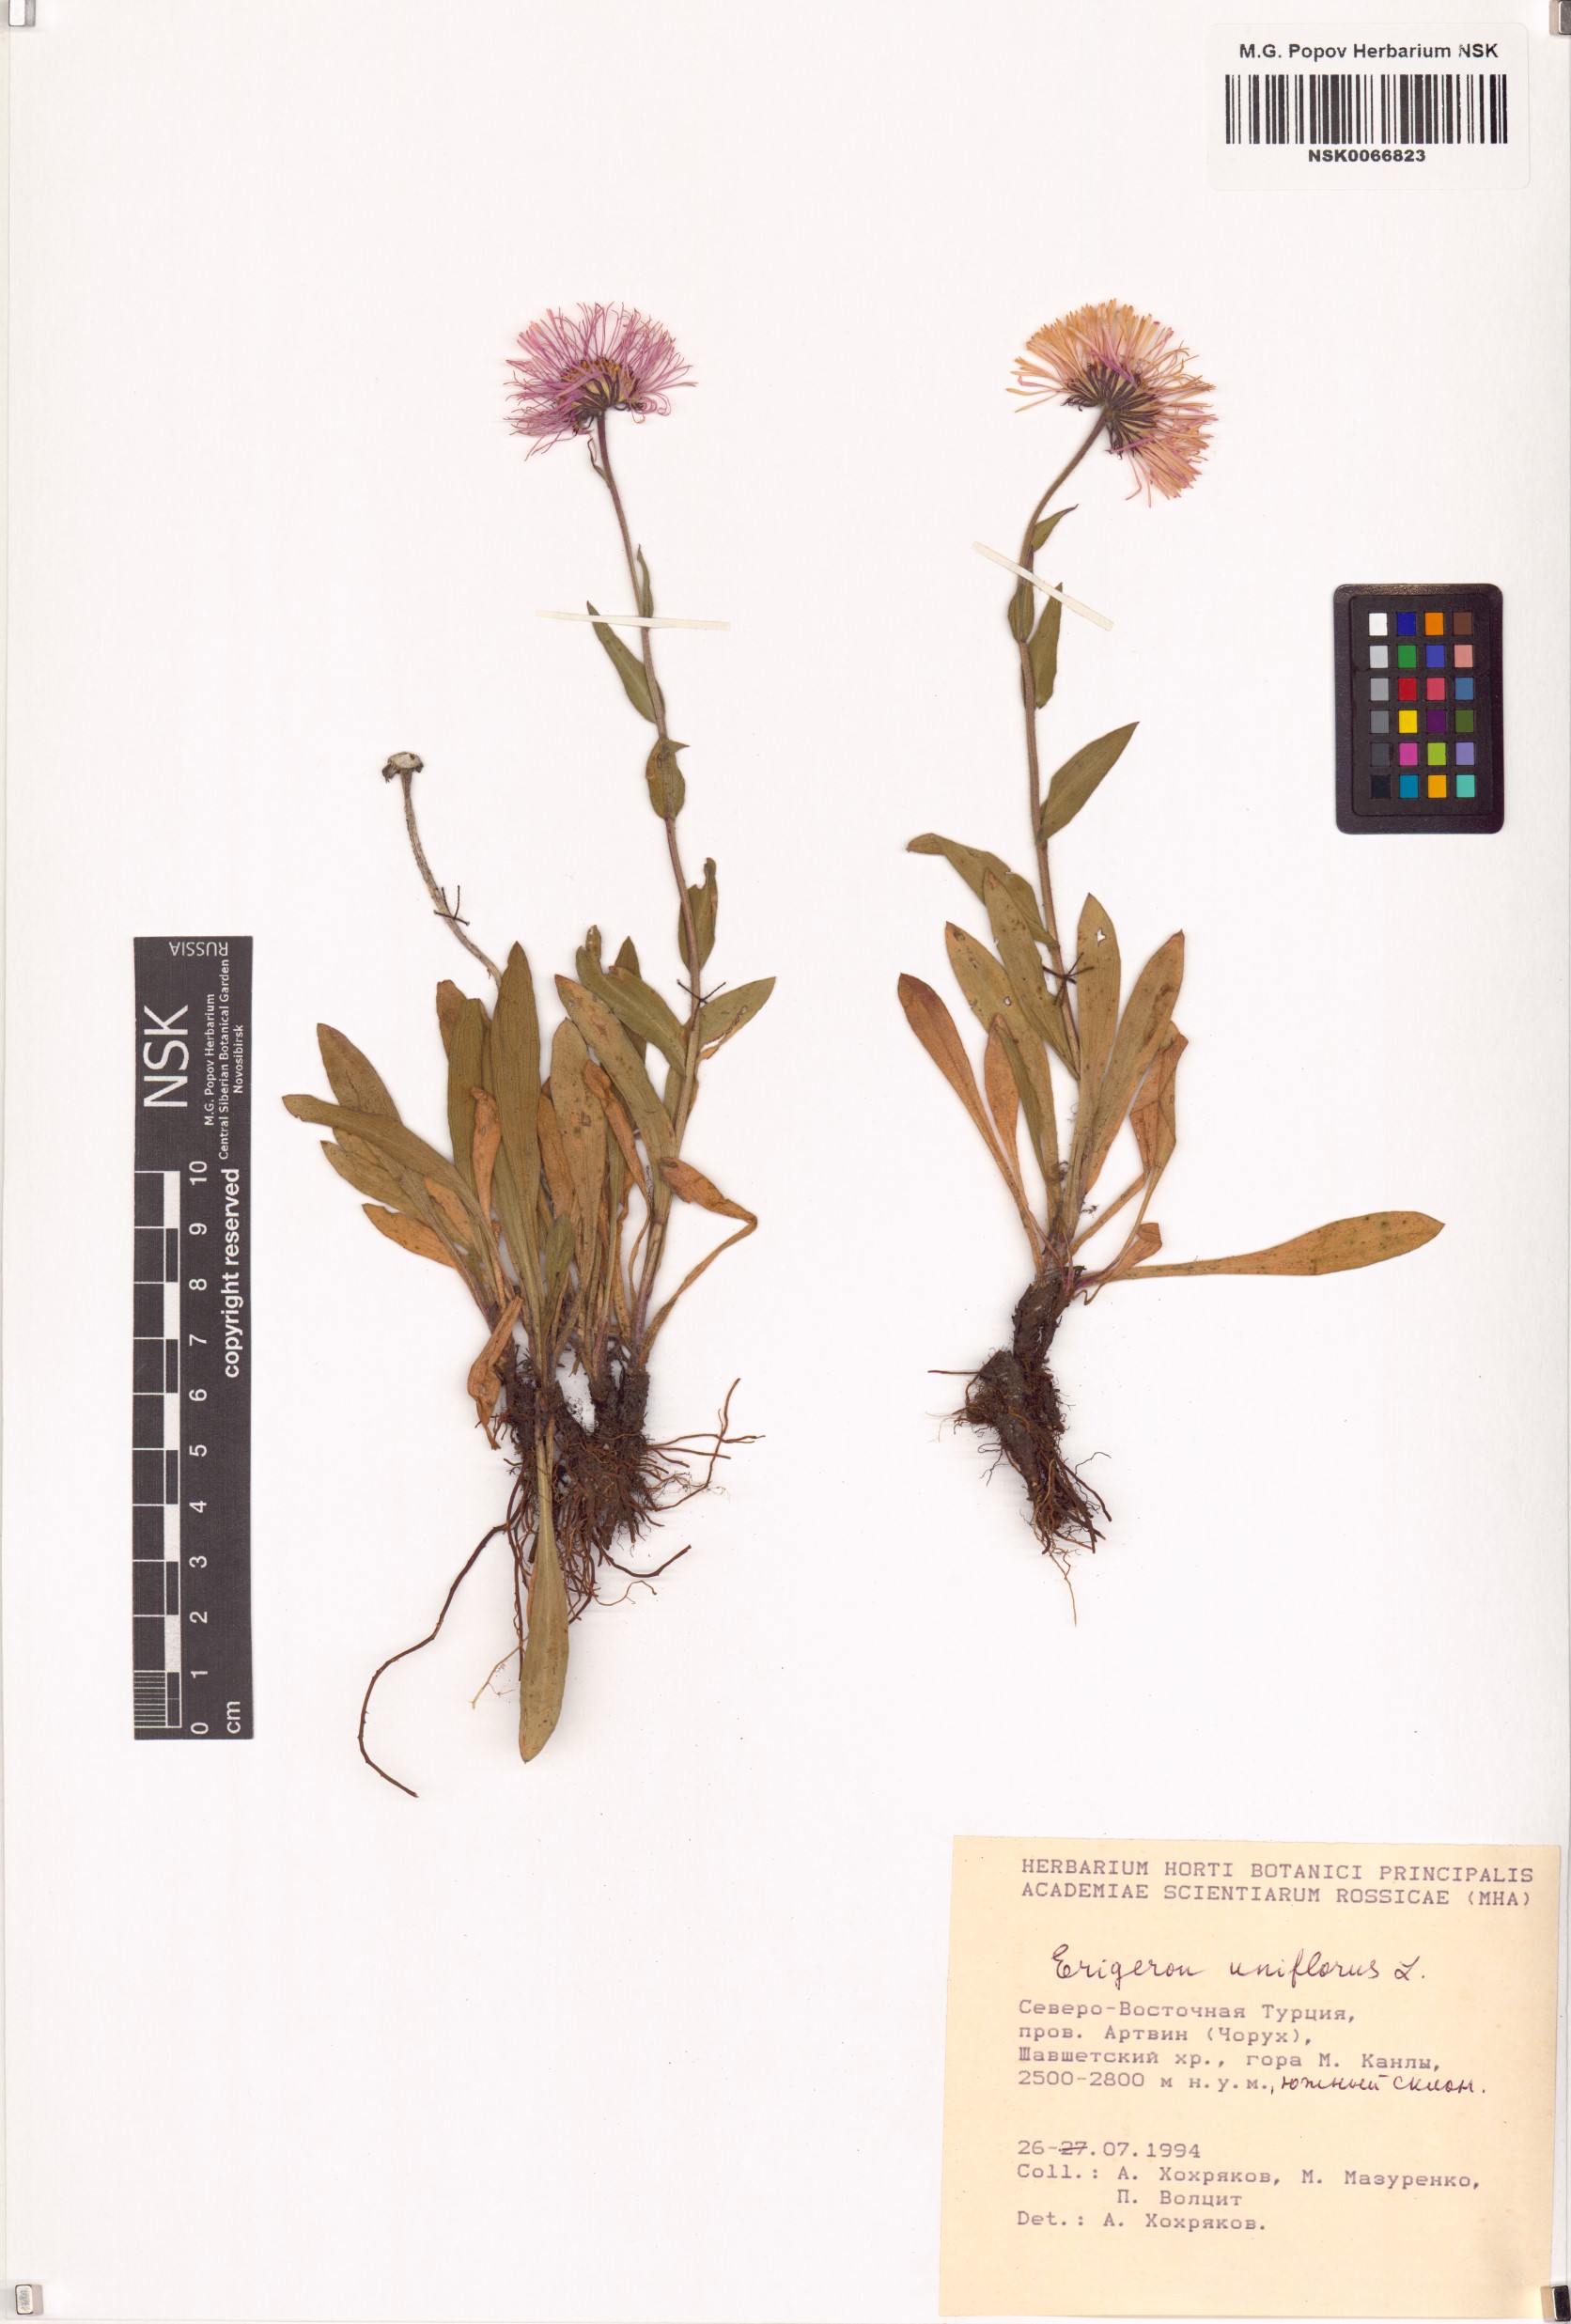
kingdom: Plantae
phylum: Tracheophyta
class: Magnoliopsida
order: Asterales
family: Asteraceae
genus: Erigeron
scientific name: Erigeron uniflorus
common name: Northern daisy
